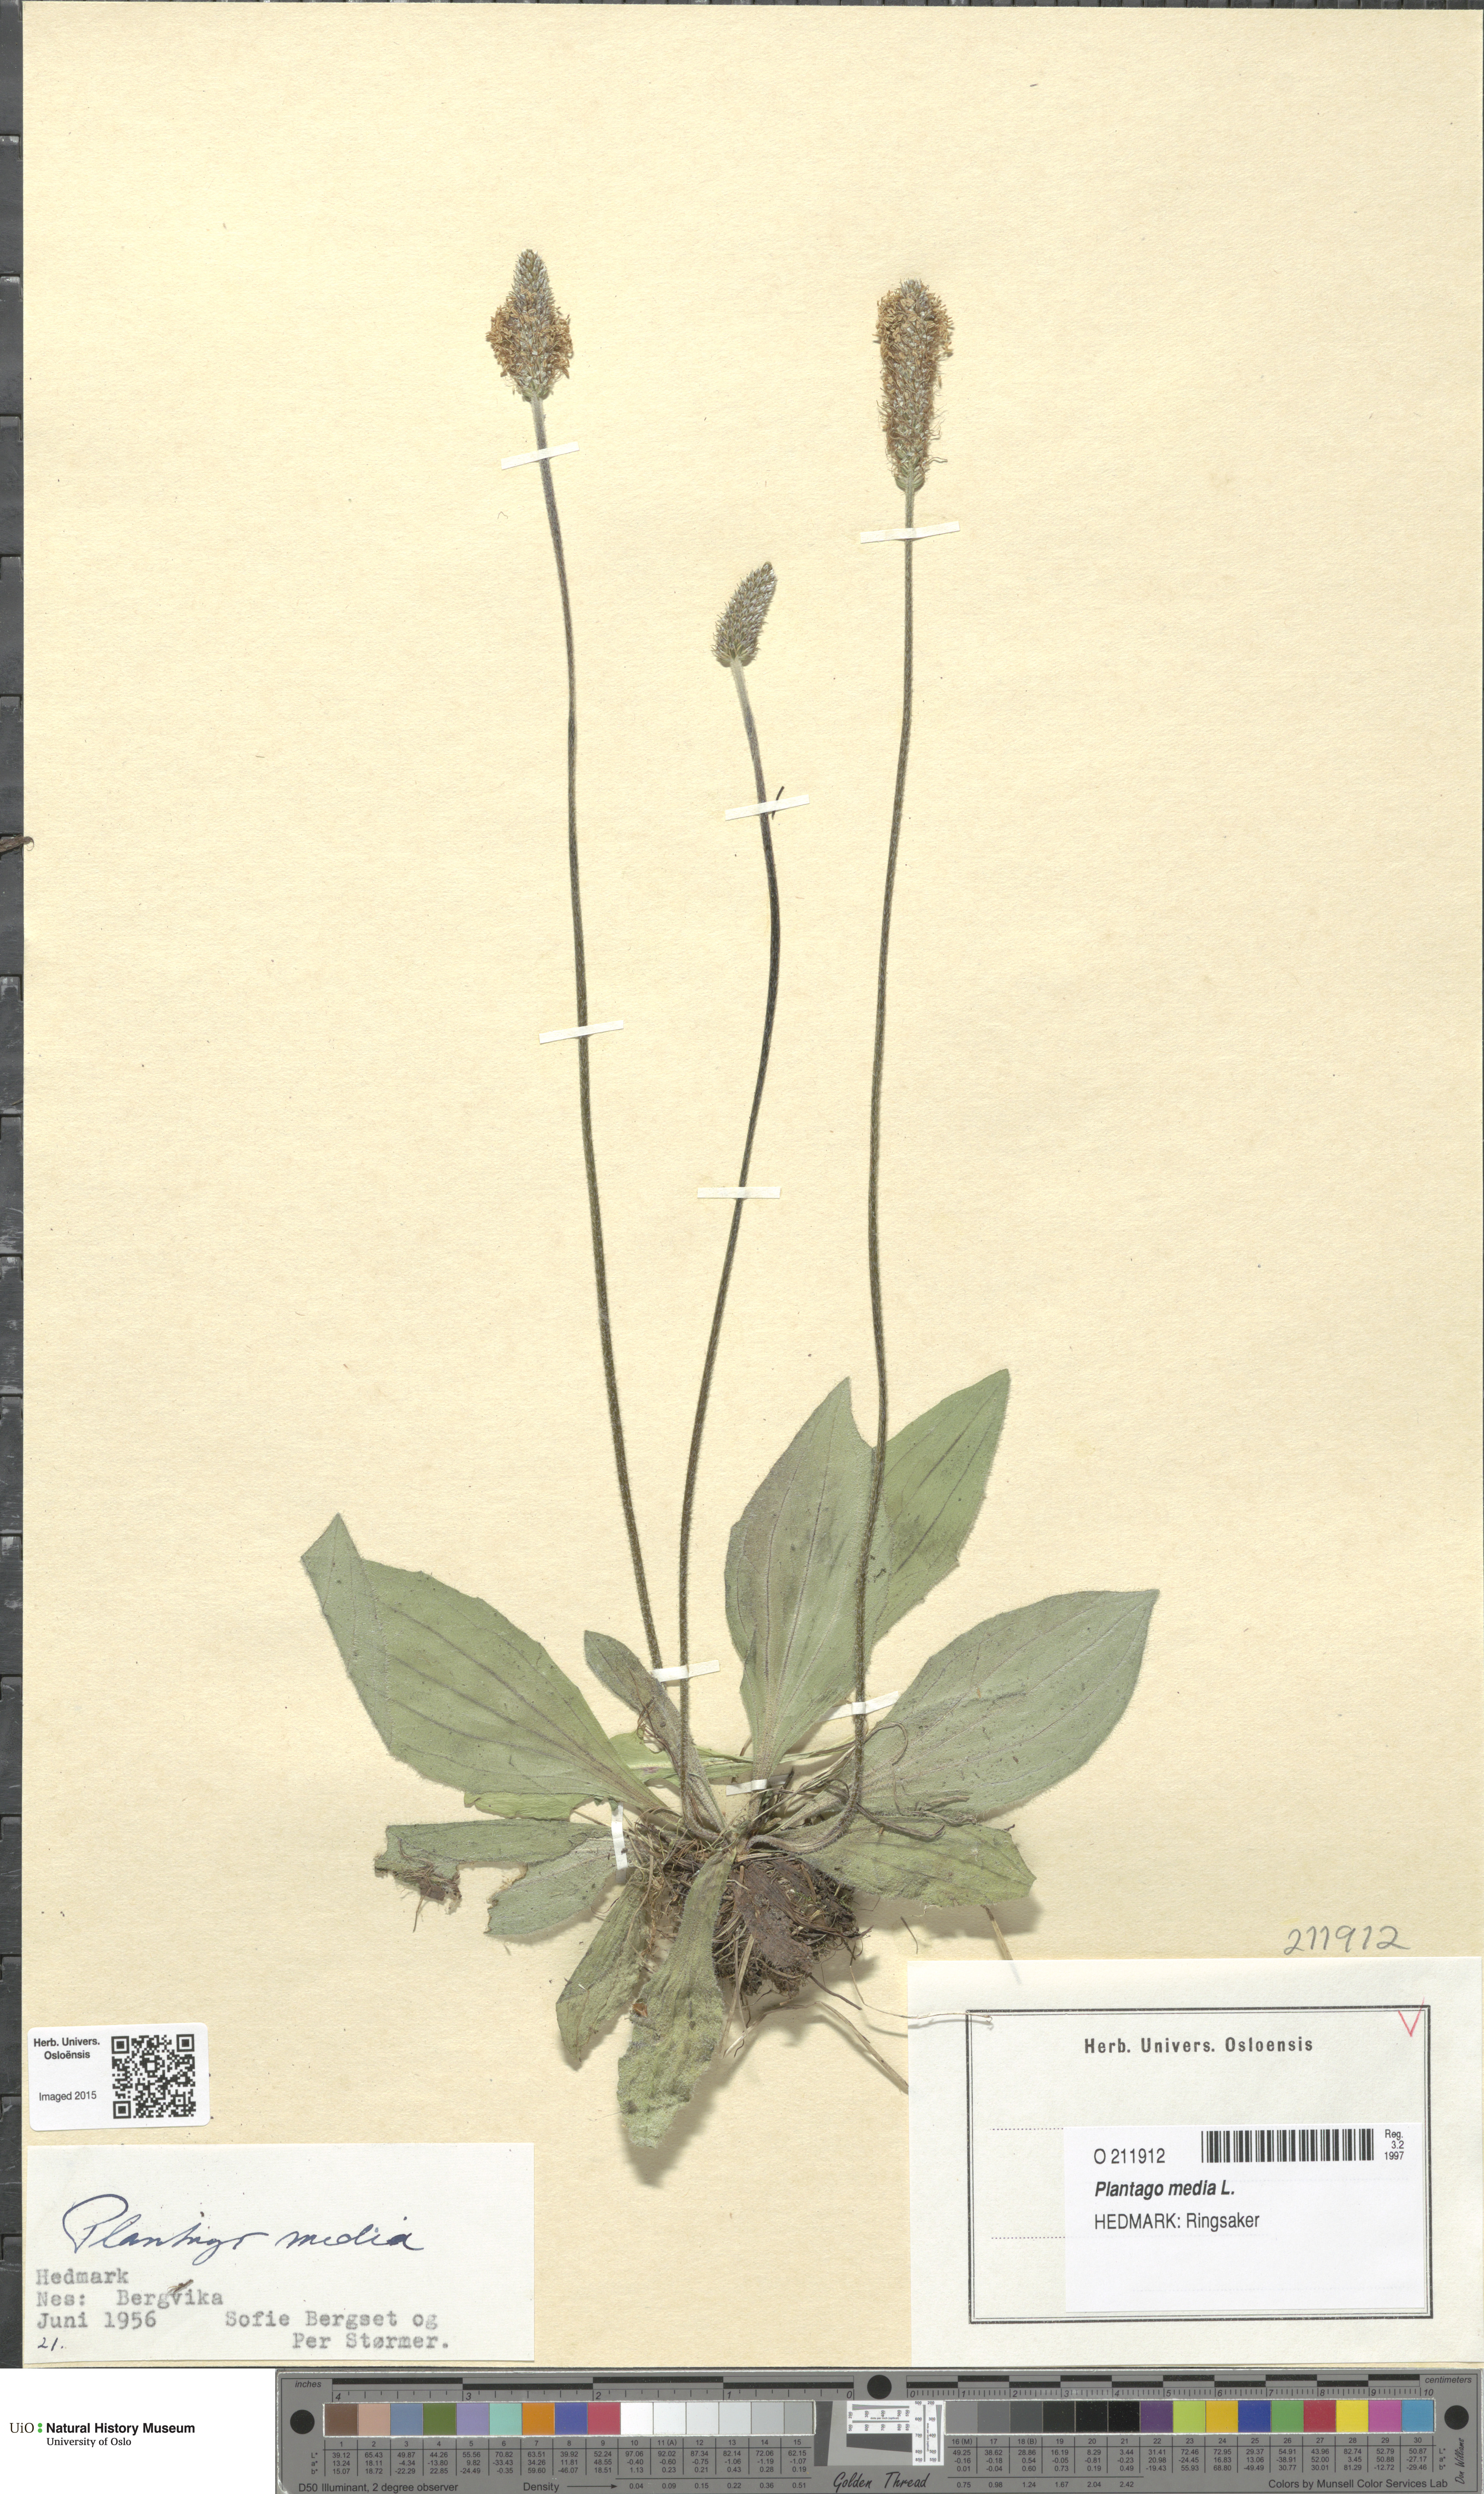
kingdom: Plantae
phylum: Tracheophyta
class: Magnoliopsida
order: Lamiales
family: Plantaginaceae
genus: Plantago
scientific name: Plantago media
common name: Hoary plantain
